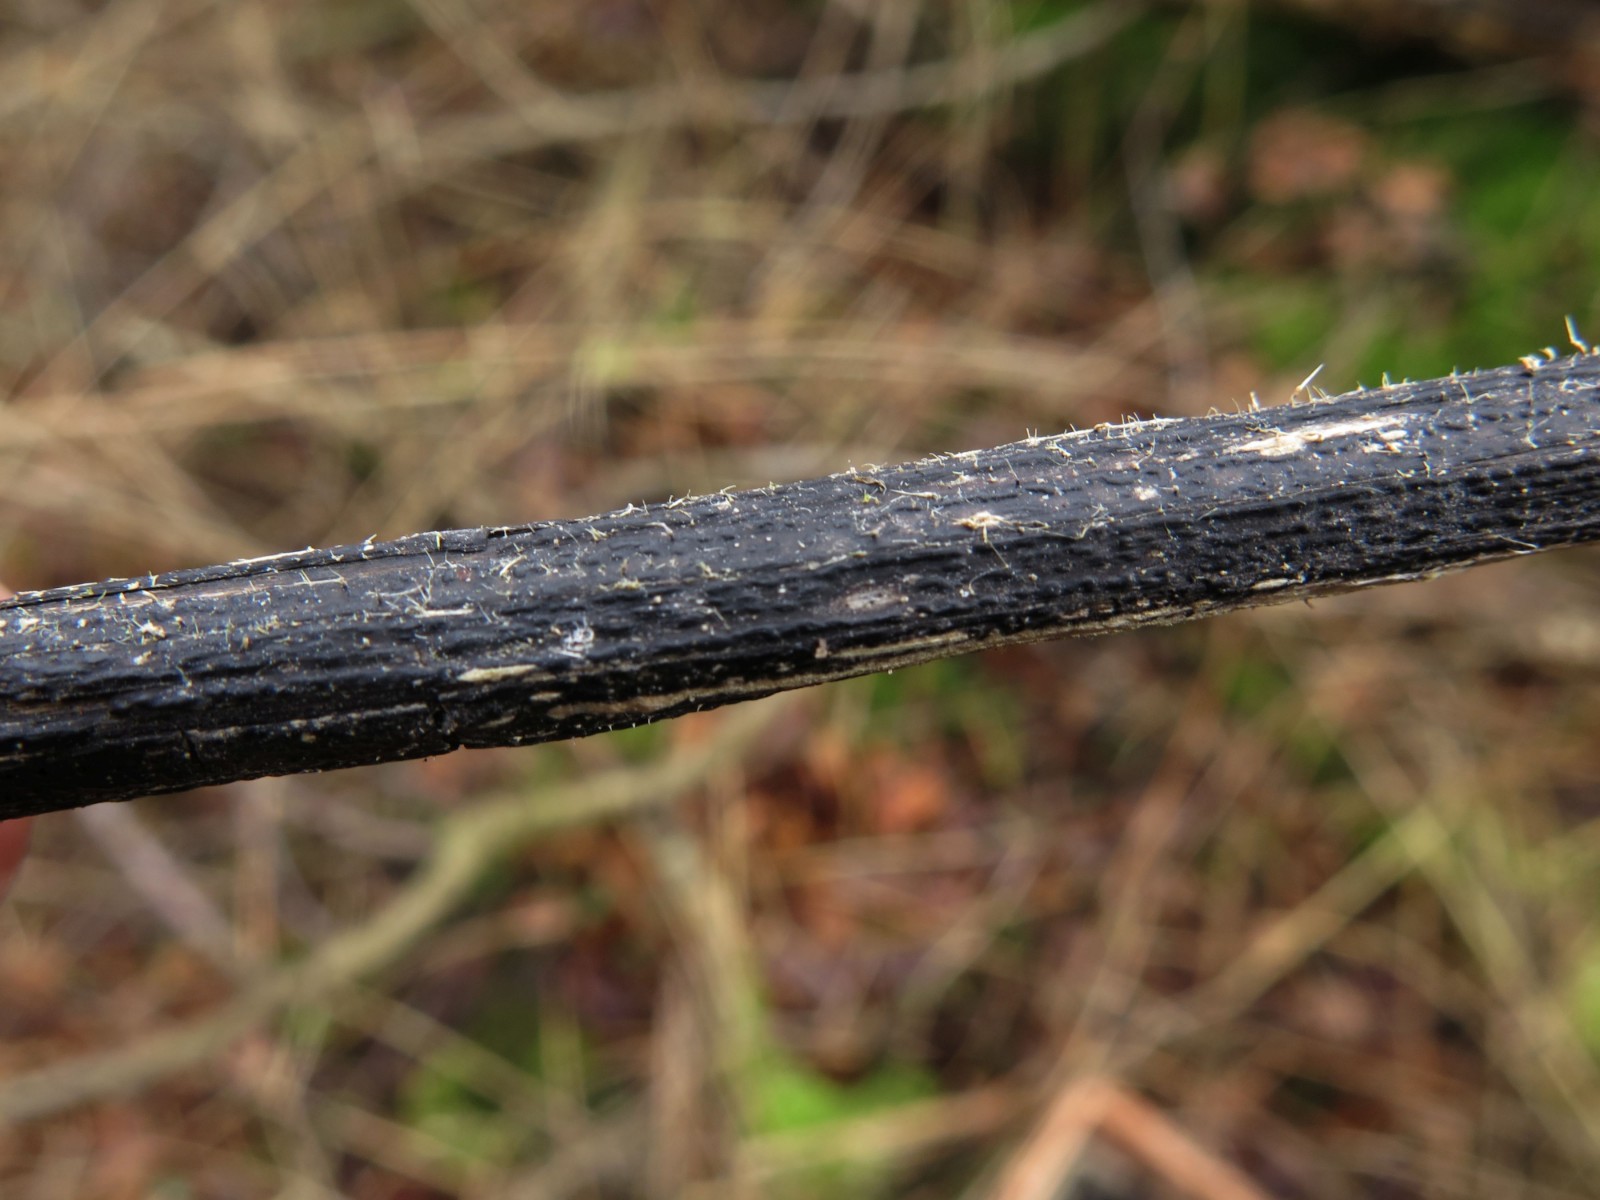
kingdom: Fungi
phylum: Ascomycota
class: Sordariomycetes
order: Diaporthales
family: Diaporthaceae
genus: Diaporthopsis
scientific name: Diaporthopsis urticae
